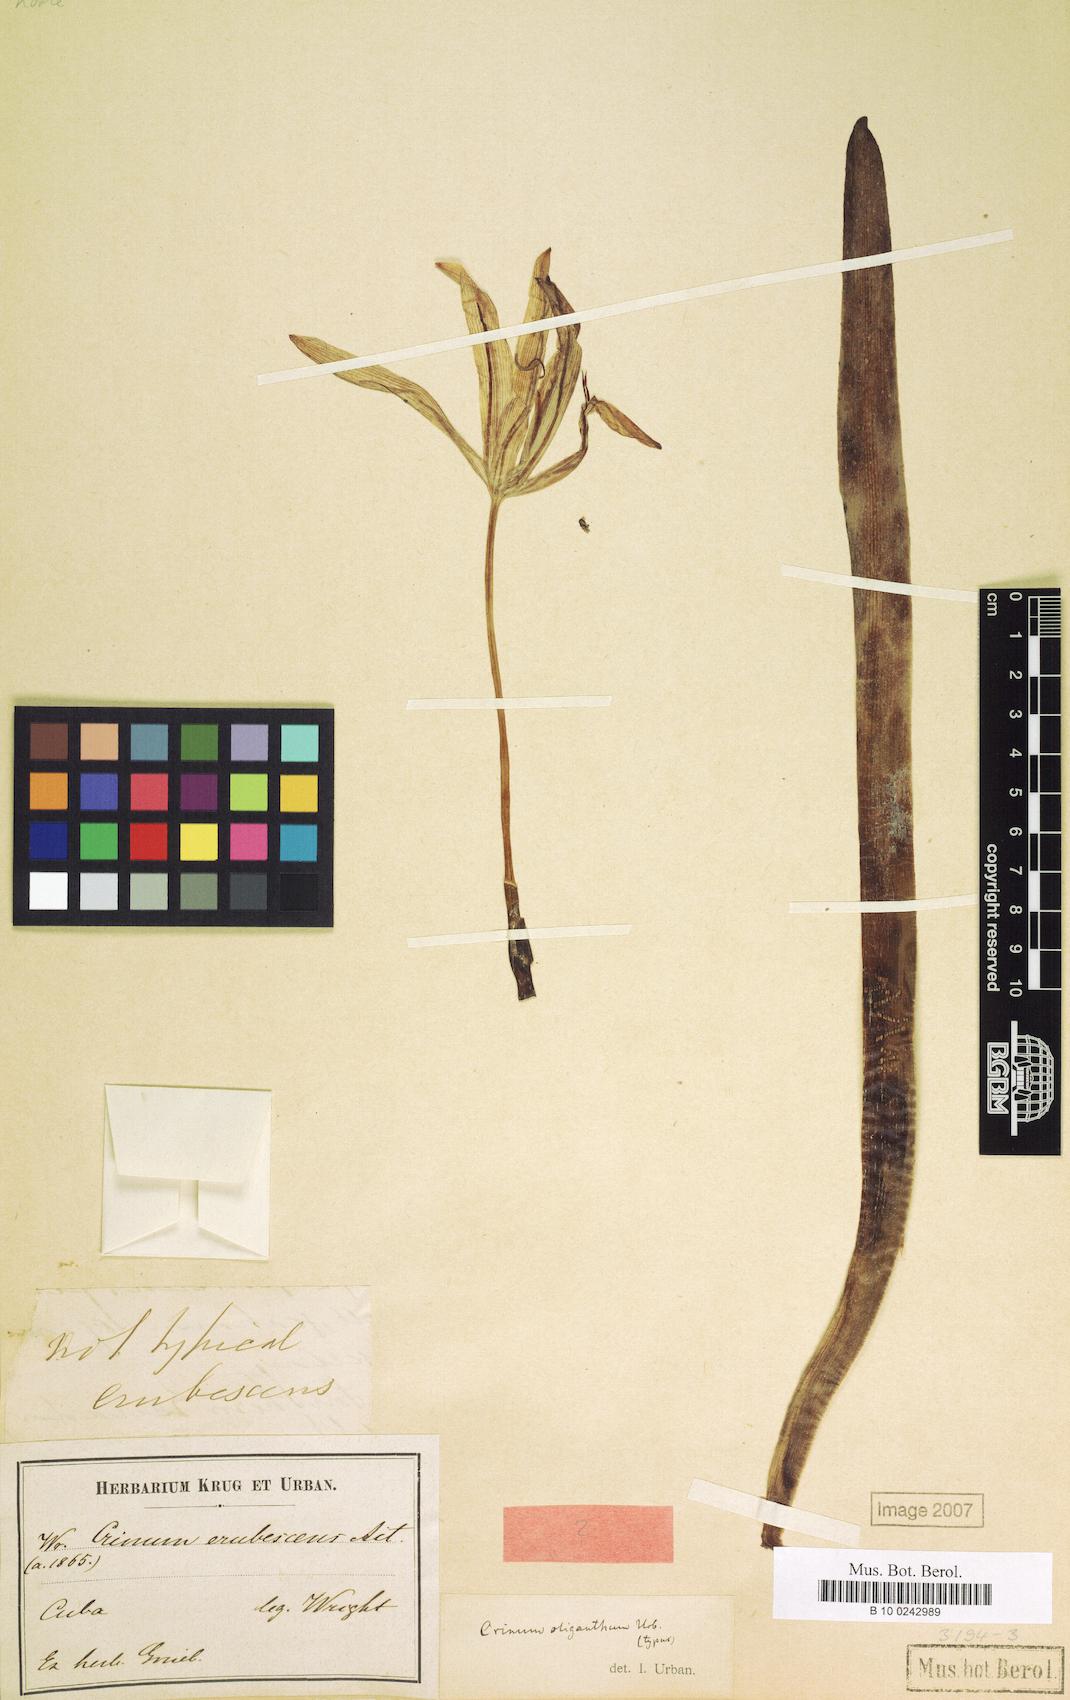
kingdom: Plantae
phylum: Tracheophyta
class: Liliopsida
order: Asparagales
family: Amaryllidaceae
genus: Crinum
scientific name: Crinum oliganthum
